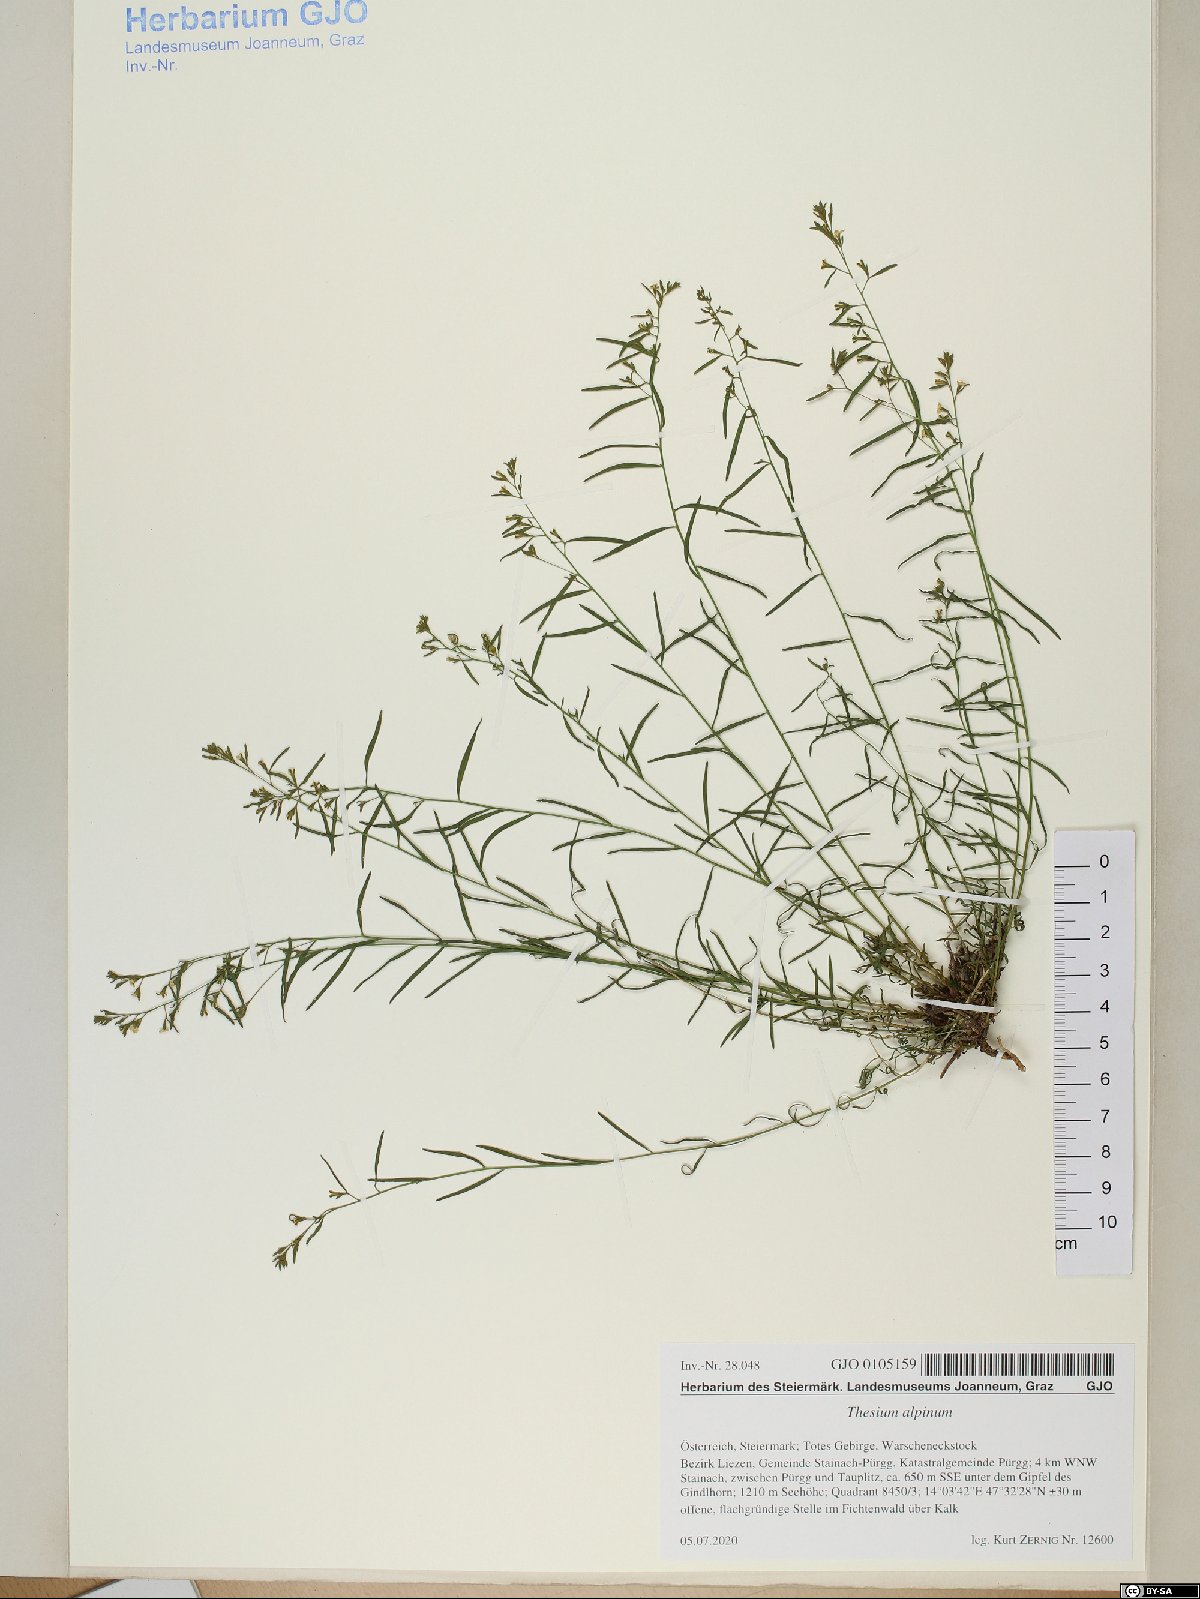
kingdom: Plantae
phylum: Tracheophyta
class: Magnoliopsida
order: Santalales
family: Thesiaceae
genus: Thesium
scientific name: Thesium alpinum
